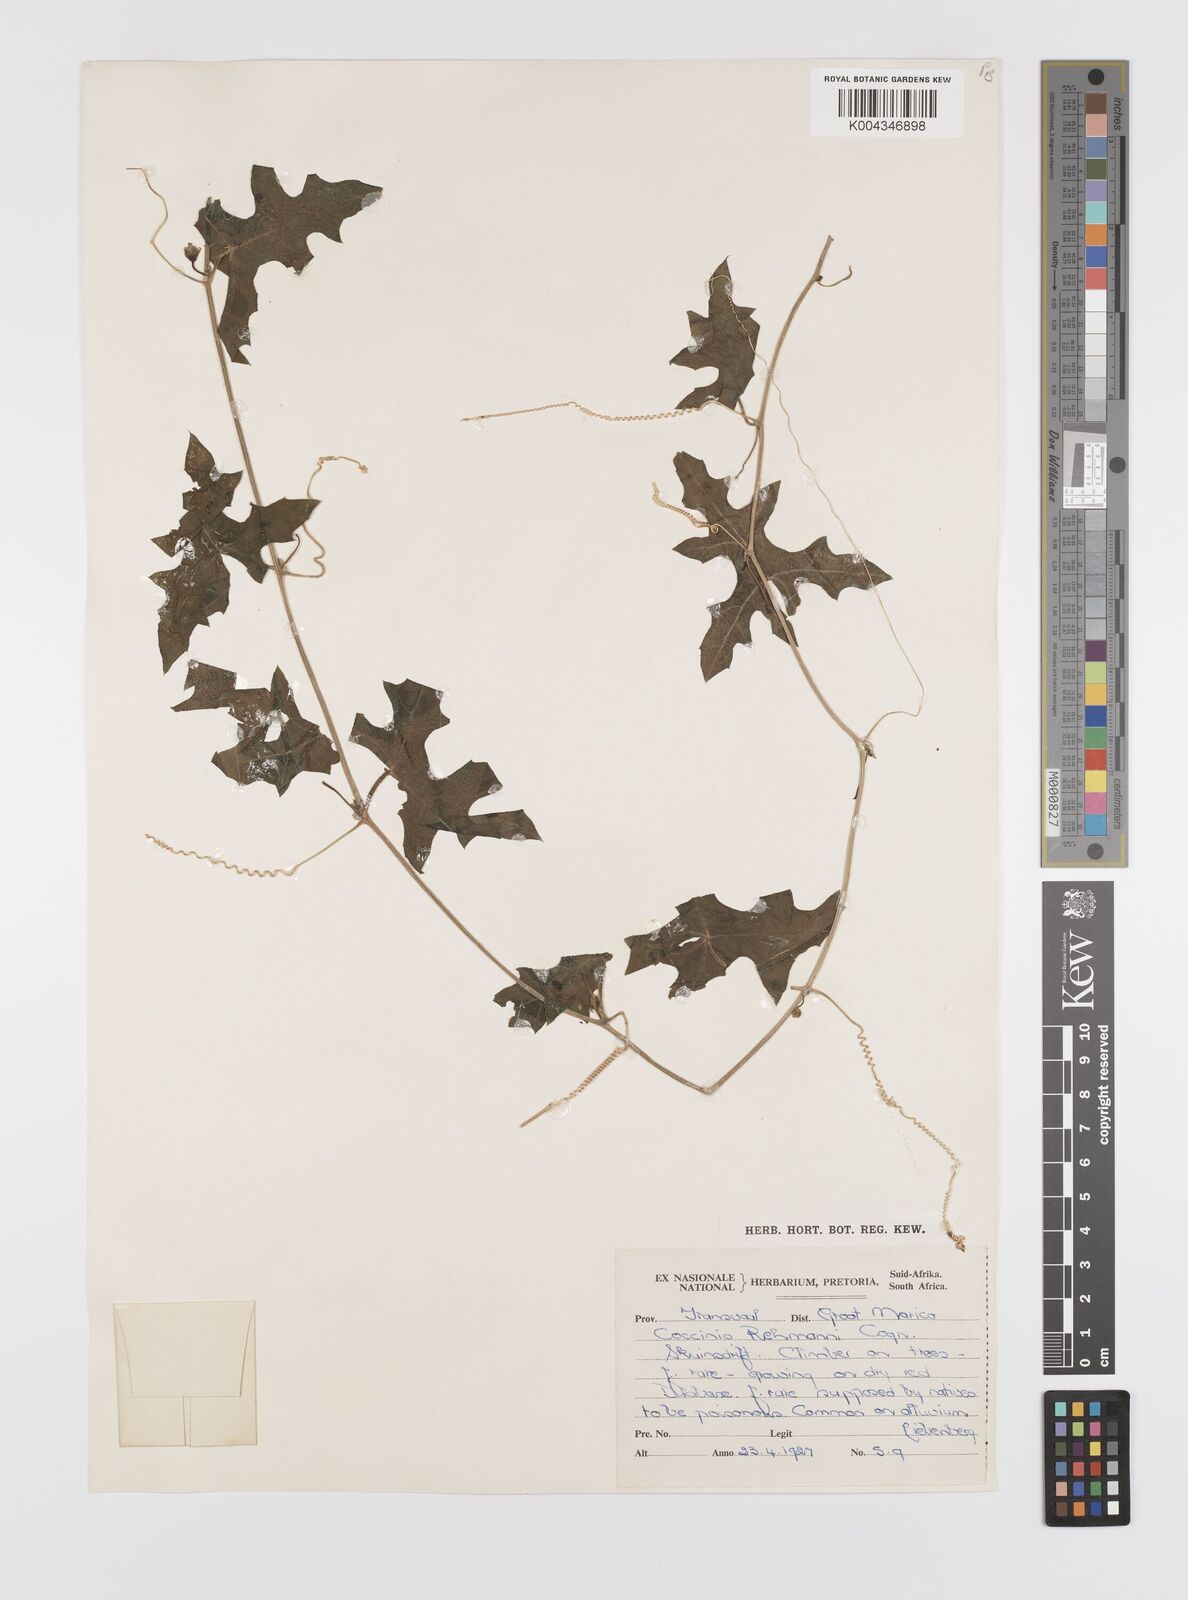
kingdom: Plantae
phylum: Tracheophyta
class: Magnoliopsida
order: Cucurbitales
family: Cucurbitaceae
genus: Coccinia
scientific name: Coccinia rehmannii
